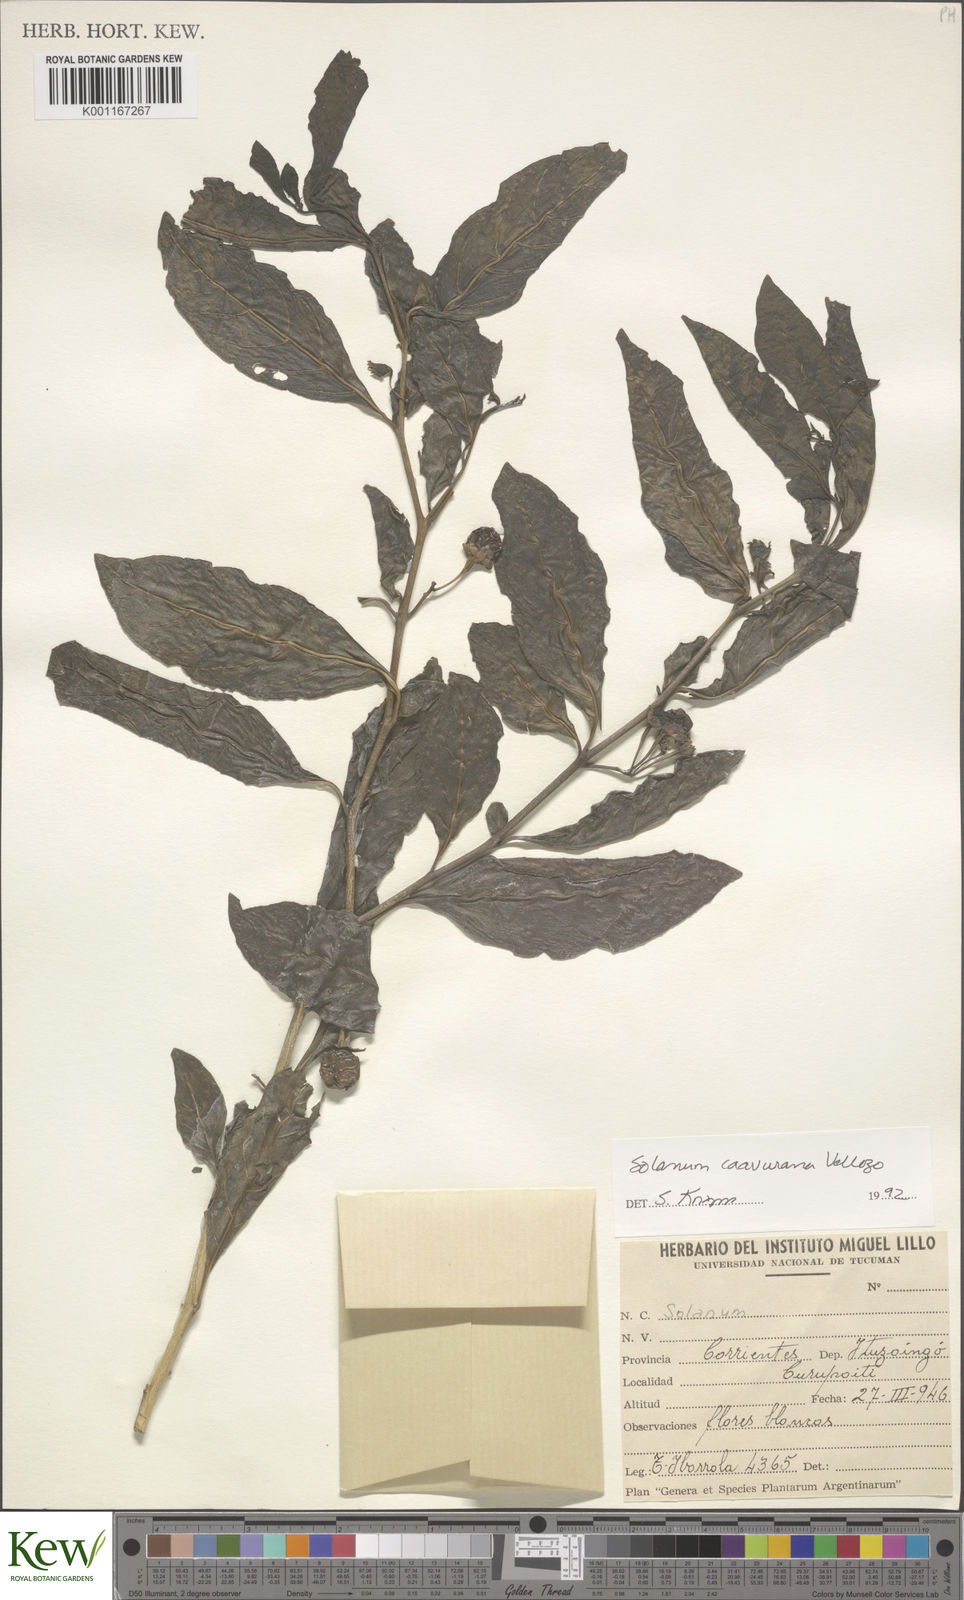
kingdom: Plantae
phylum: Tracheophyta
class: Magnoliopsida
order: Solanales
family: Solanaceae
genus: Solanum
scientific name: Solanum caavurana
